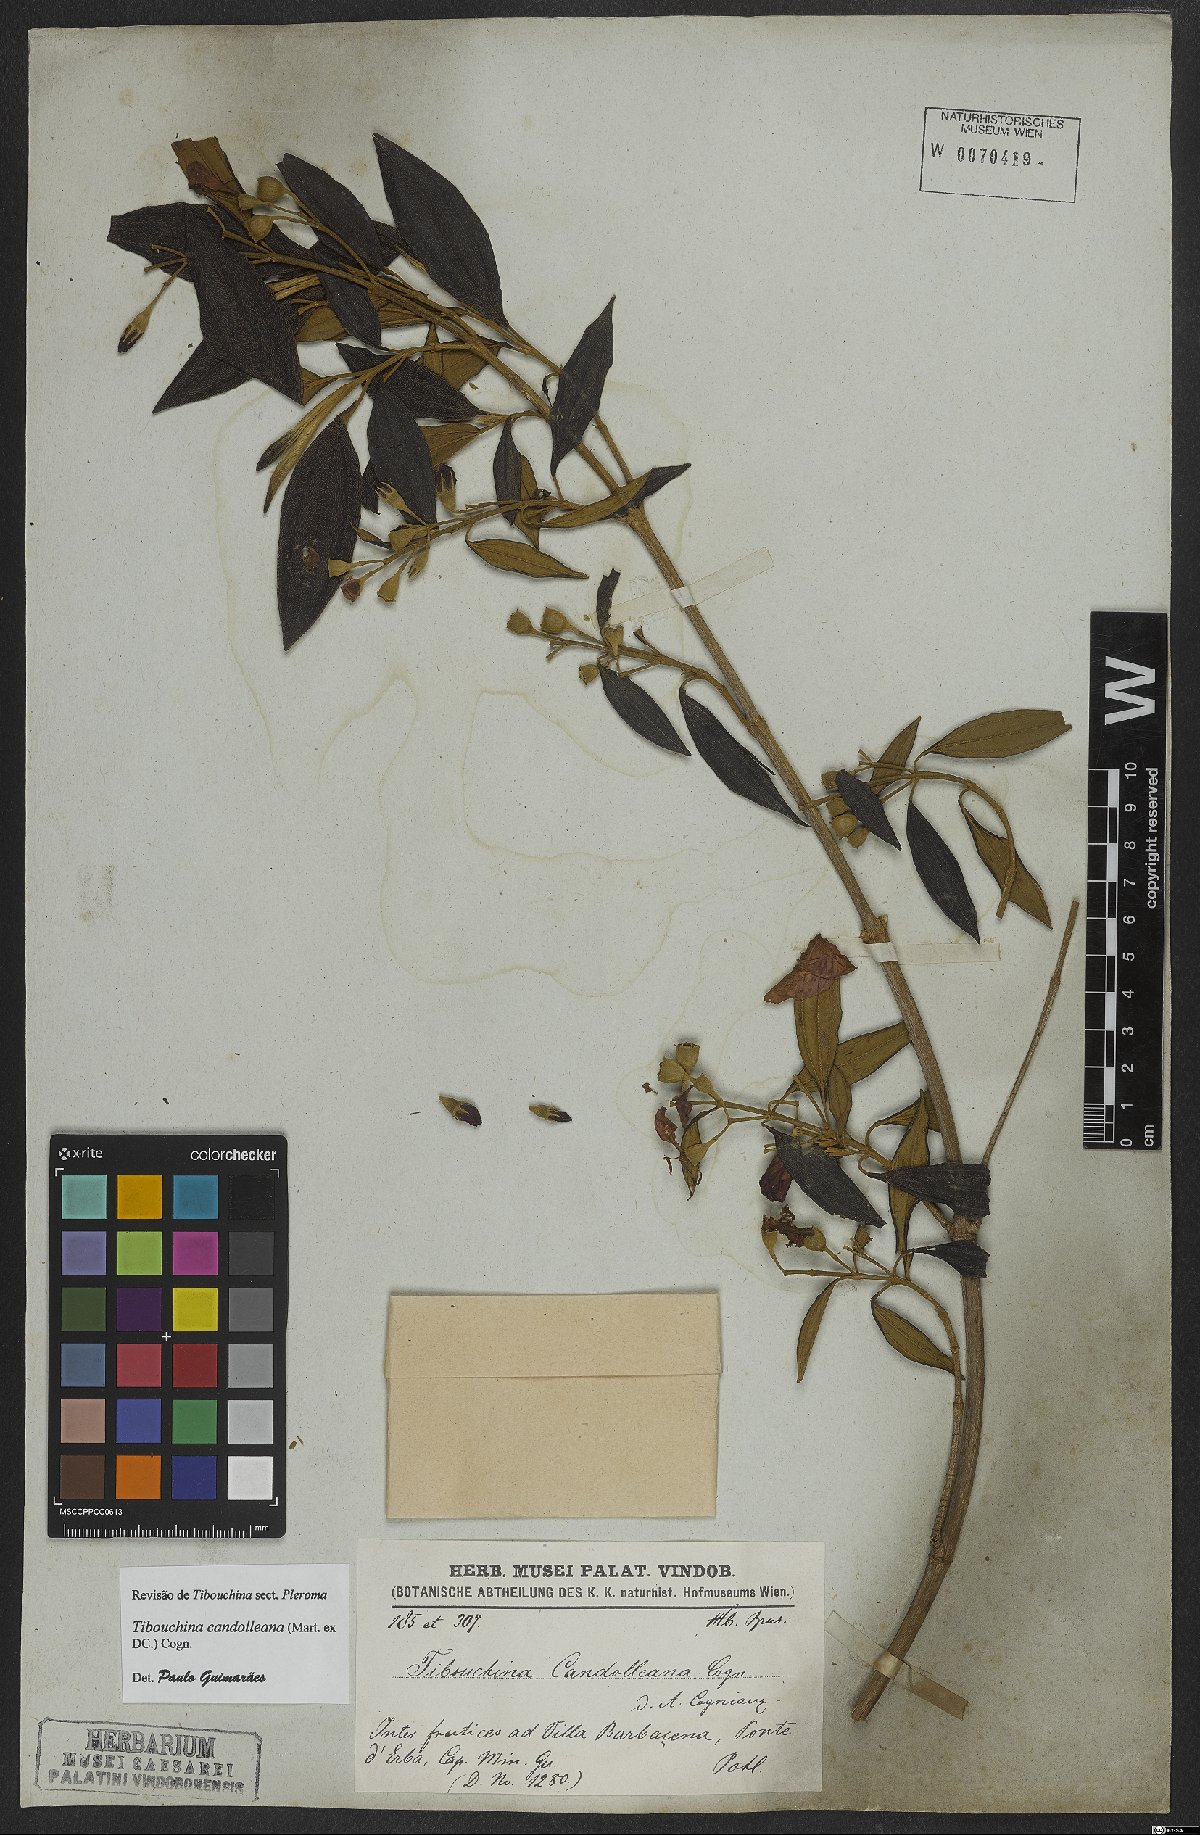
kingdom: Plantae
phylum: Tracheophyta
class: Magnoliopsida
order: Myrtales
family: Melastomataceae
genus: Pleroma
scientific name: Pleroma candolleanum
